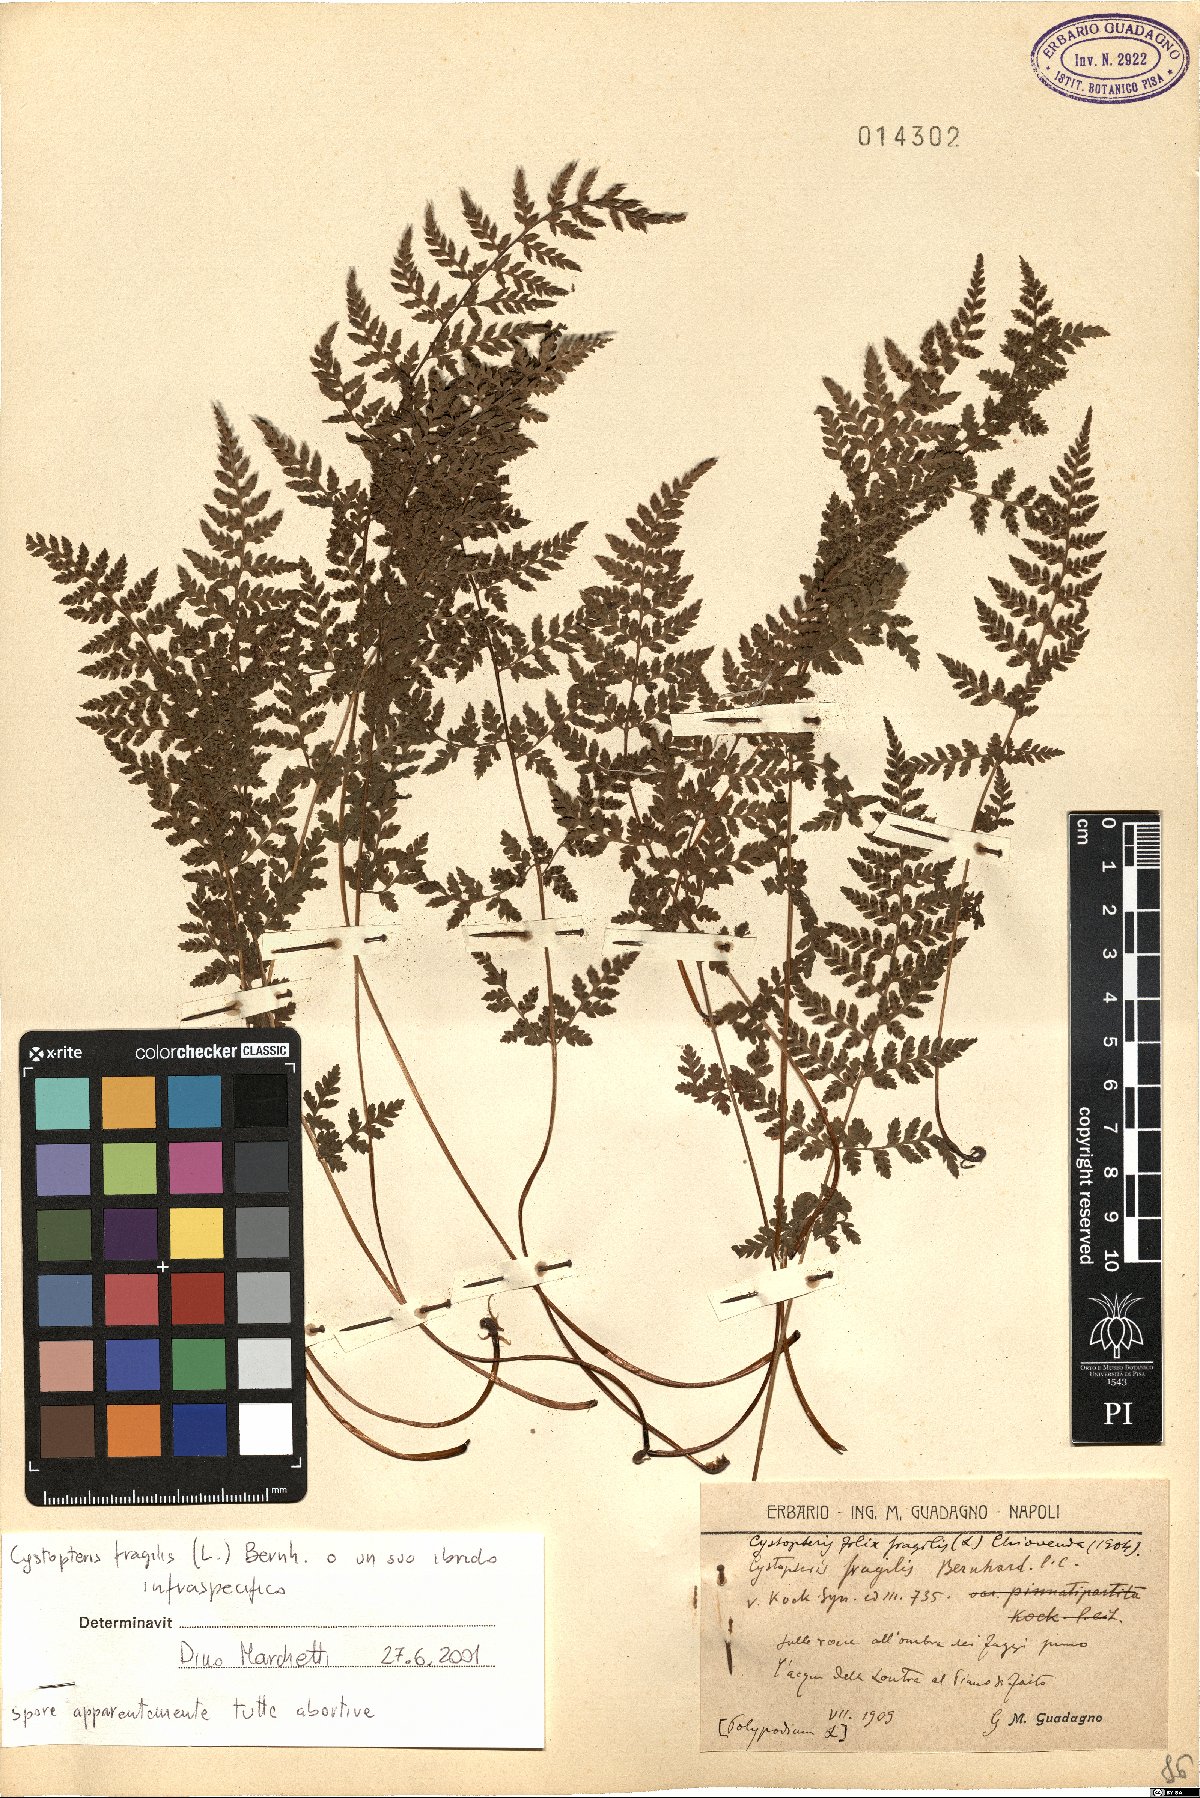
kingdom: Plantae
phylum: Tracheophyta
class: Polypodiopsida
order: Polypodiales
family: Cystopteridaceae
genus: Cystopteris
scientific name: Cystopteris fragilis
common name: Brittle bladder fern
